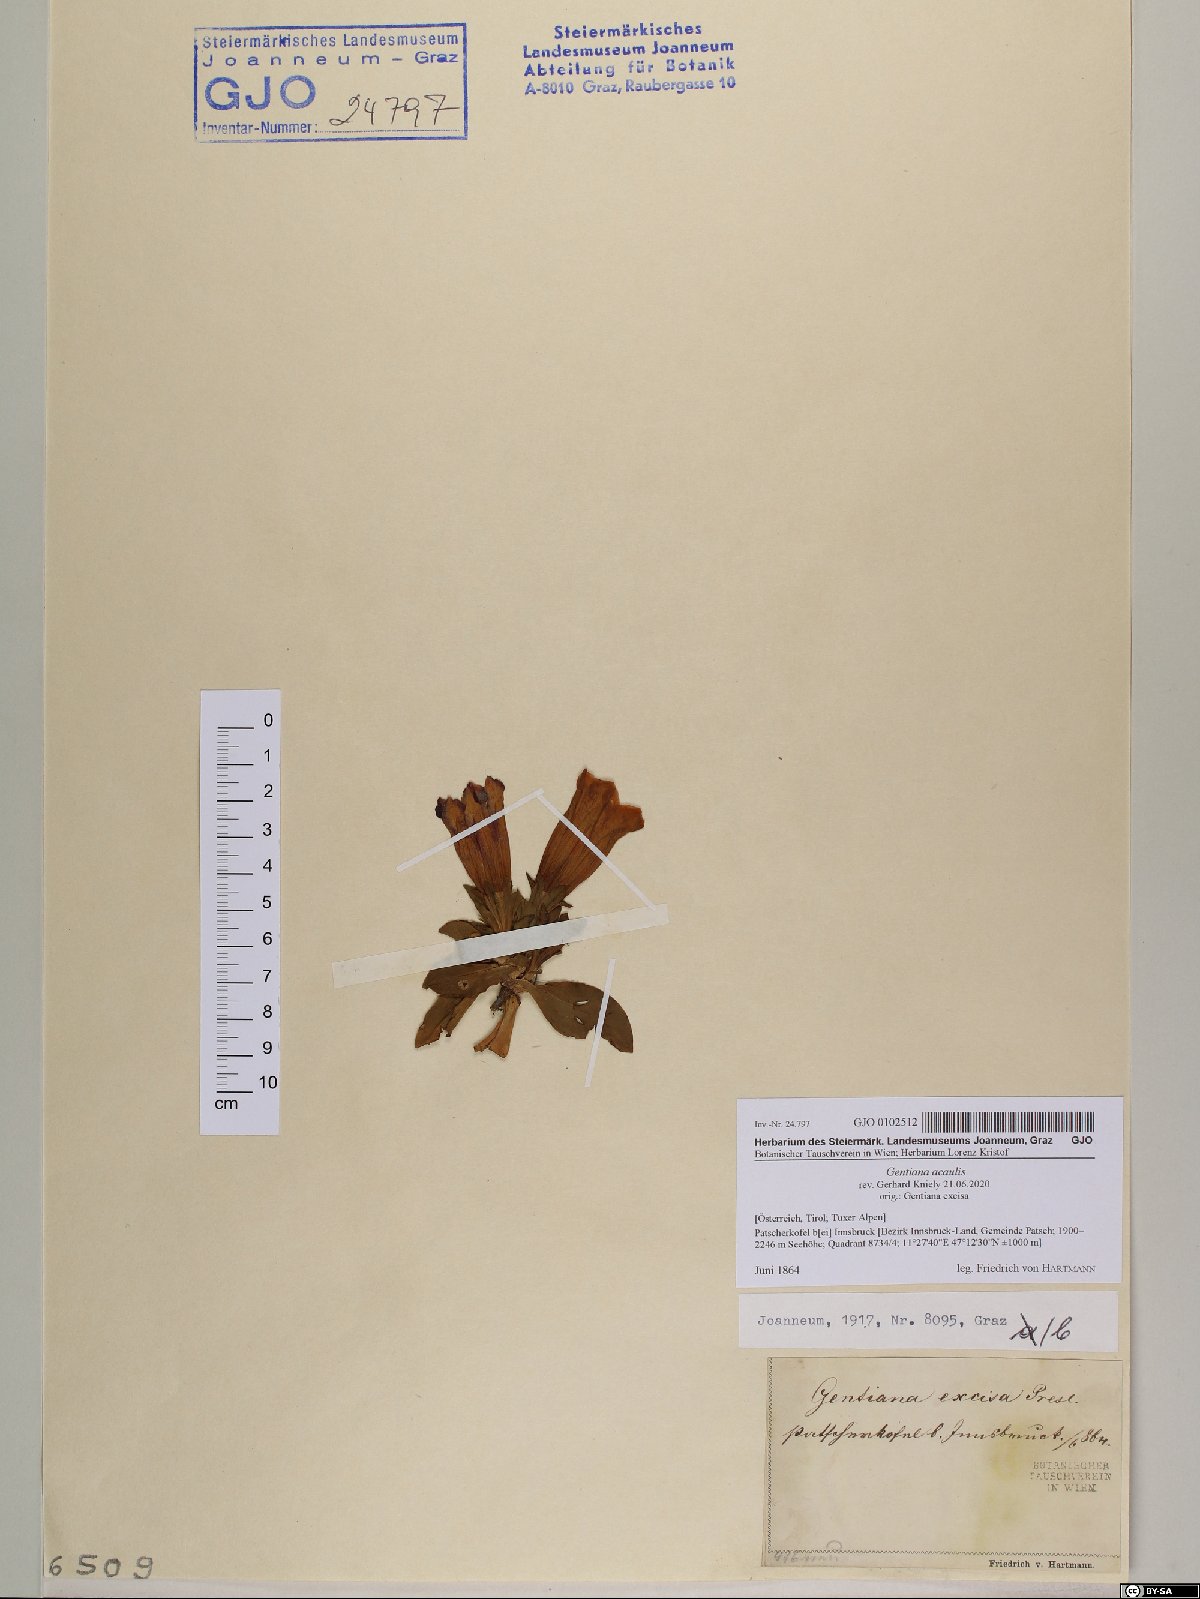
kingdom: Plantae
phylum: Tracheophyta
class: Magnoliopsida
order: Gentianales
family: Gentianaceae
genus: Gentiana
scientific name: Gentiana acaulis
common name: Trumpet gentian
